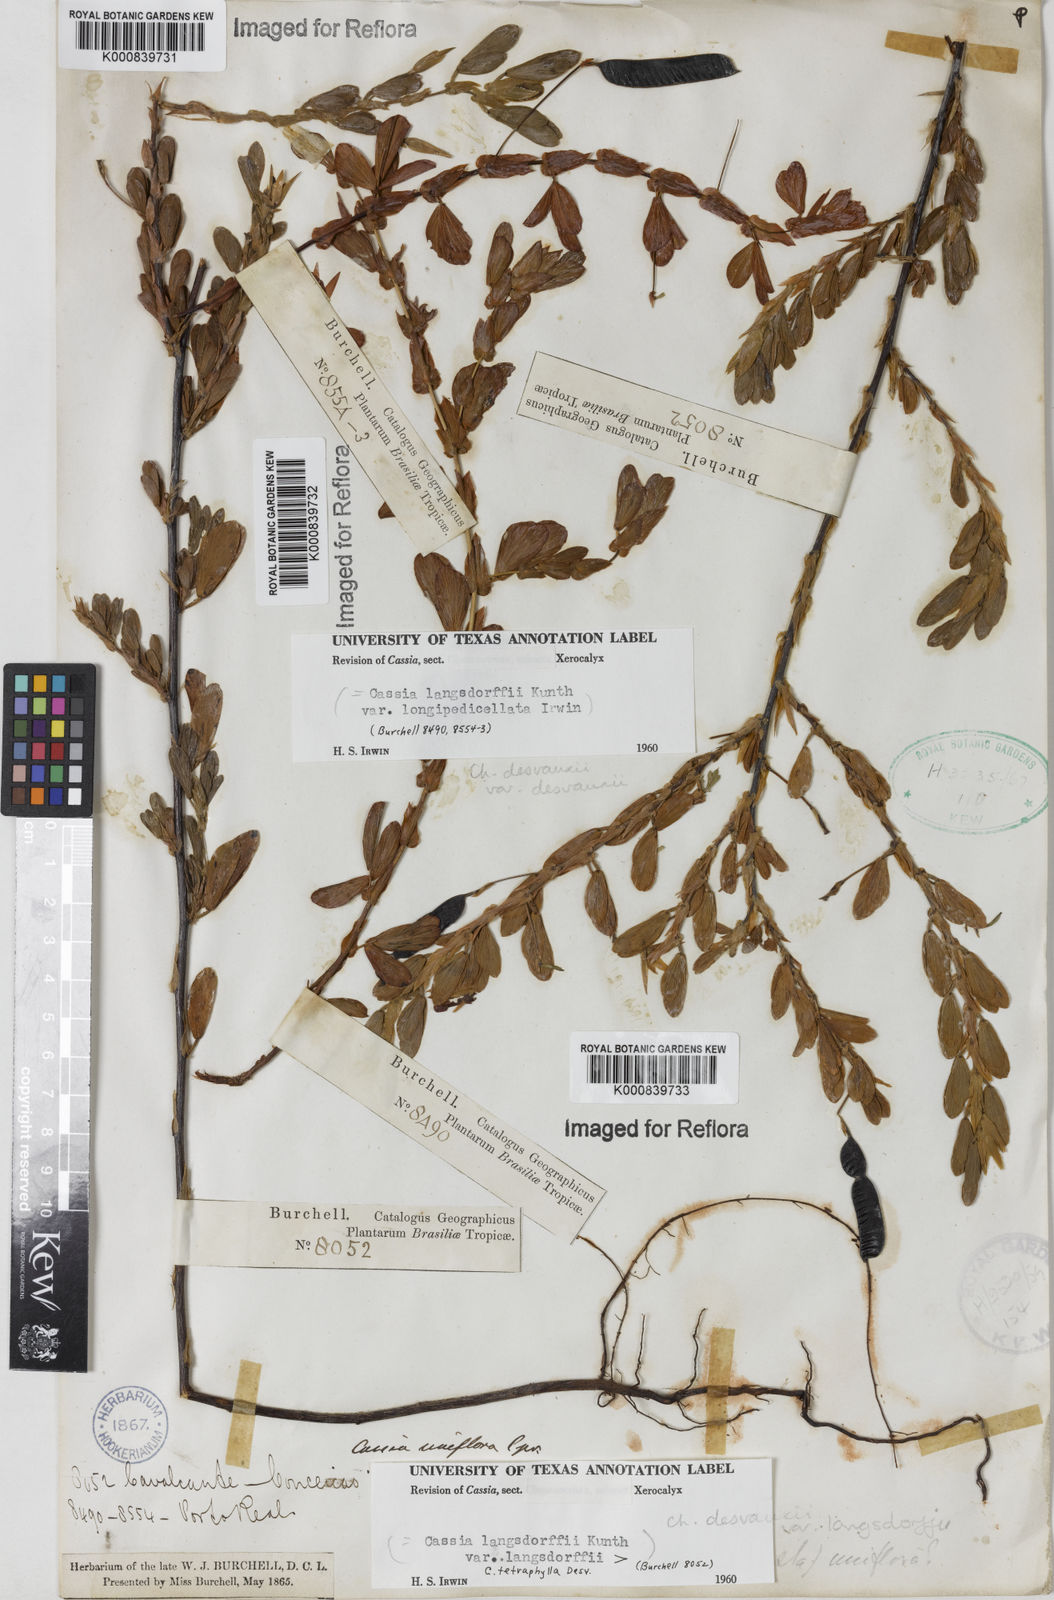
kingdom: Plantae
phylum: Tracheophyta
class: Magnoliopsida
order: Fabales
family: Fabaceae
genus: Chamaecrista
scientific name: Chamaecrista langsdorffii
